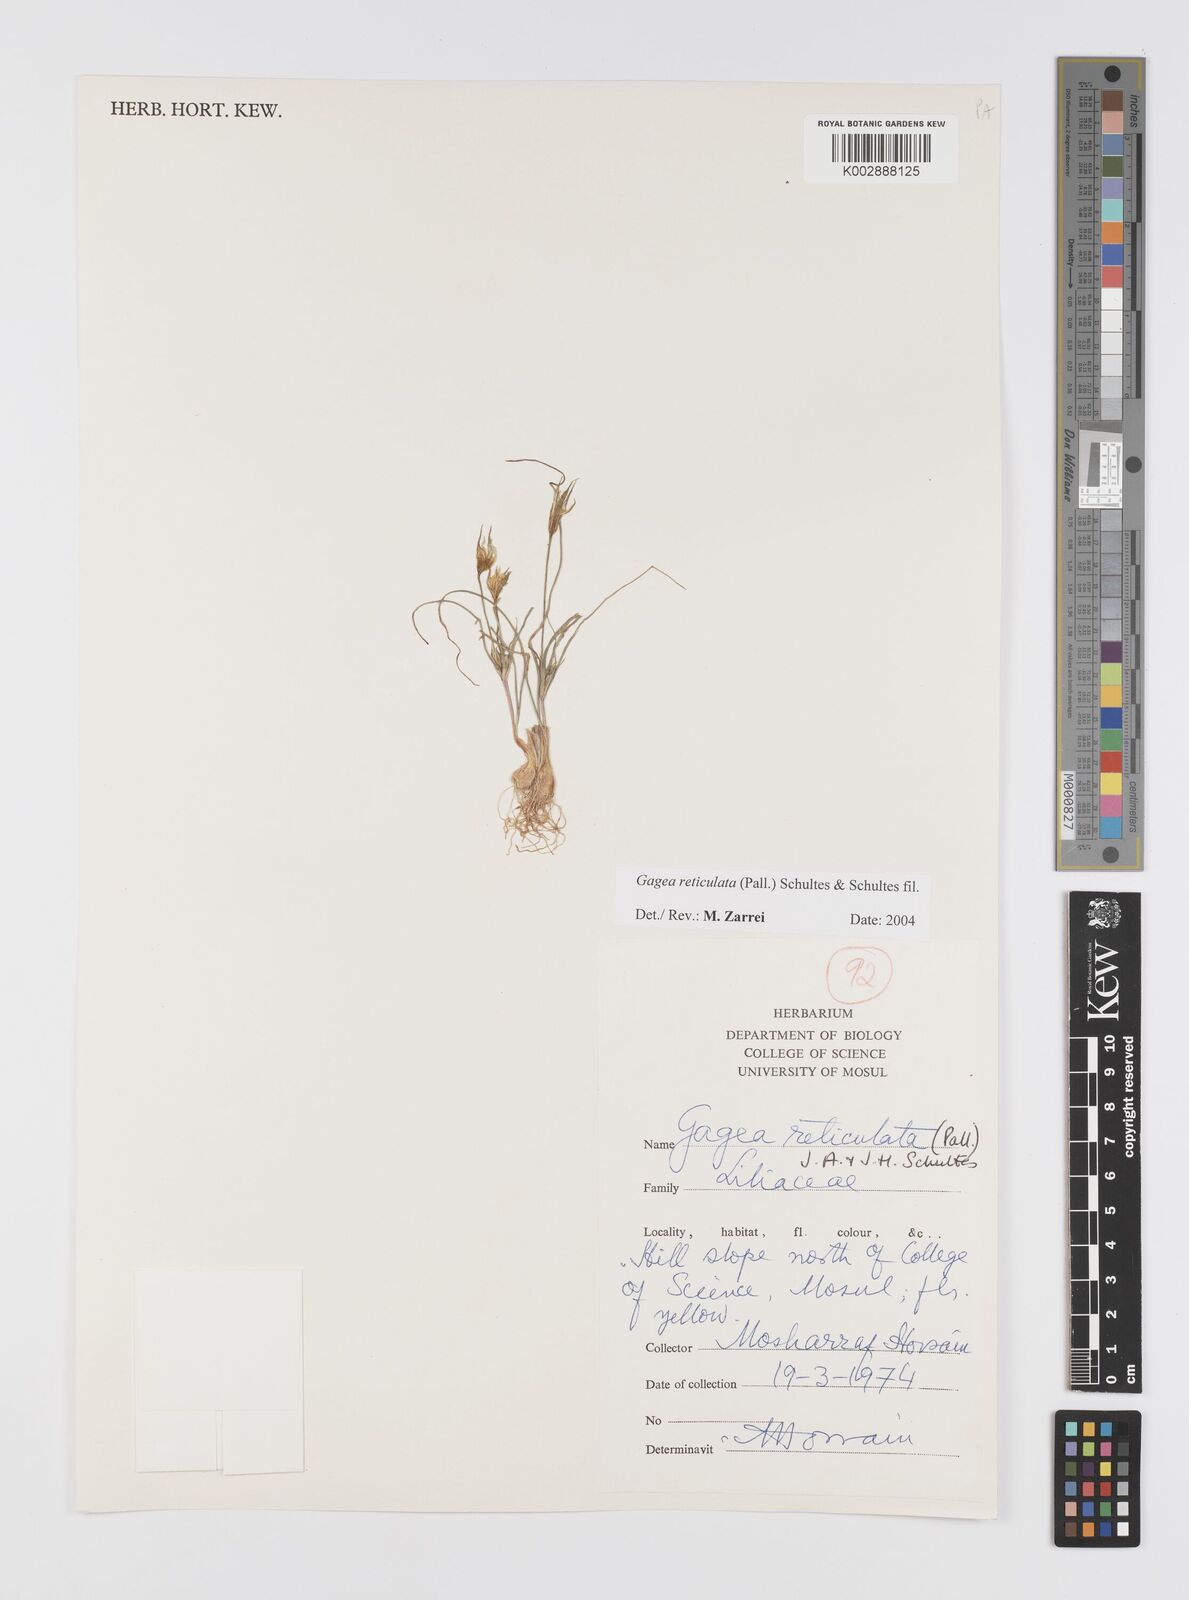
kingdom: Plantae
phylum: Tracheophyta
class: Liliopsida
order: Liliales
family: Liliaceae
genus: Gagea
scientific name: Gagea reticulata
